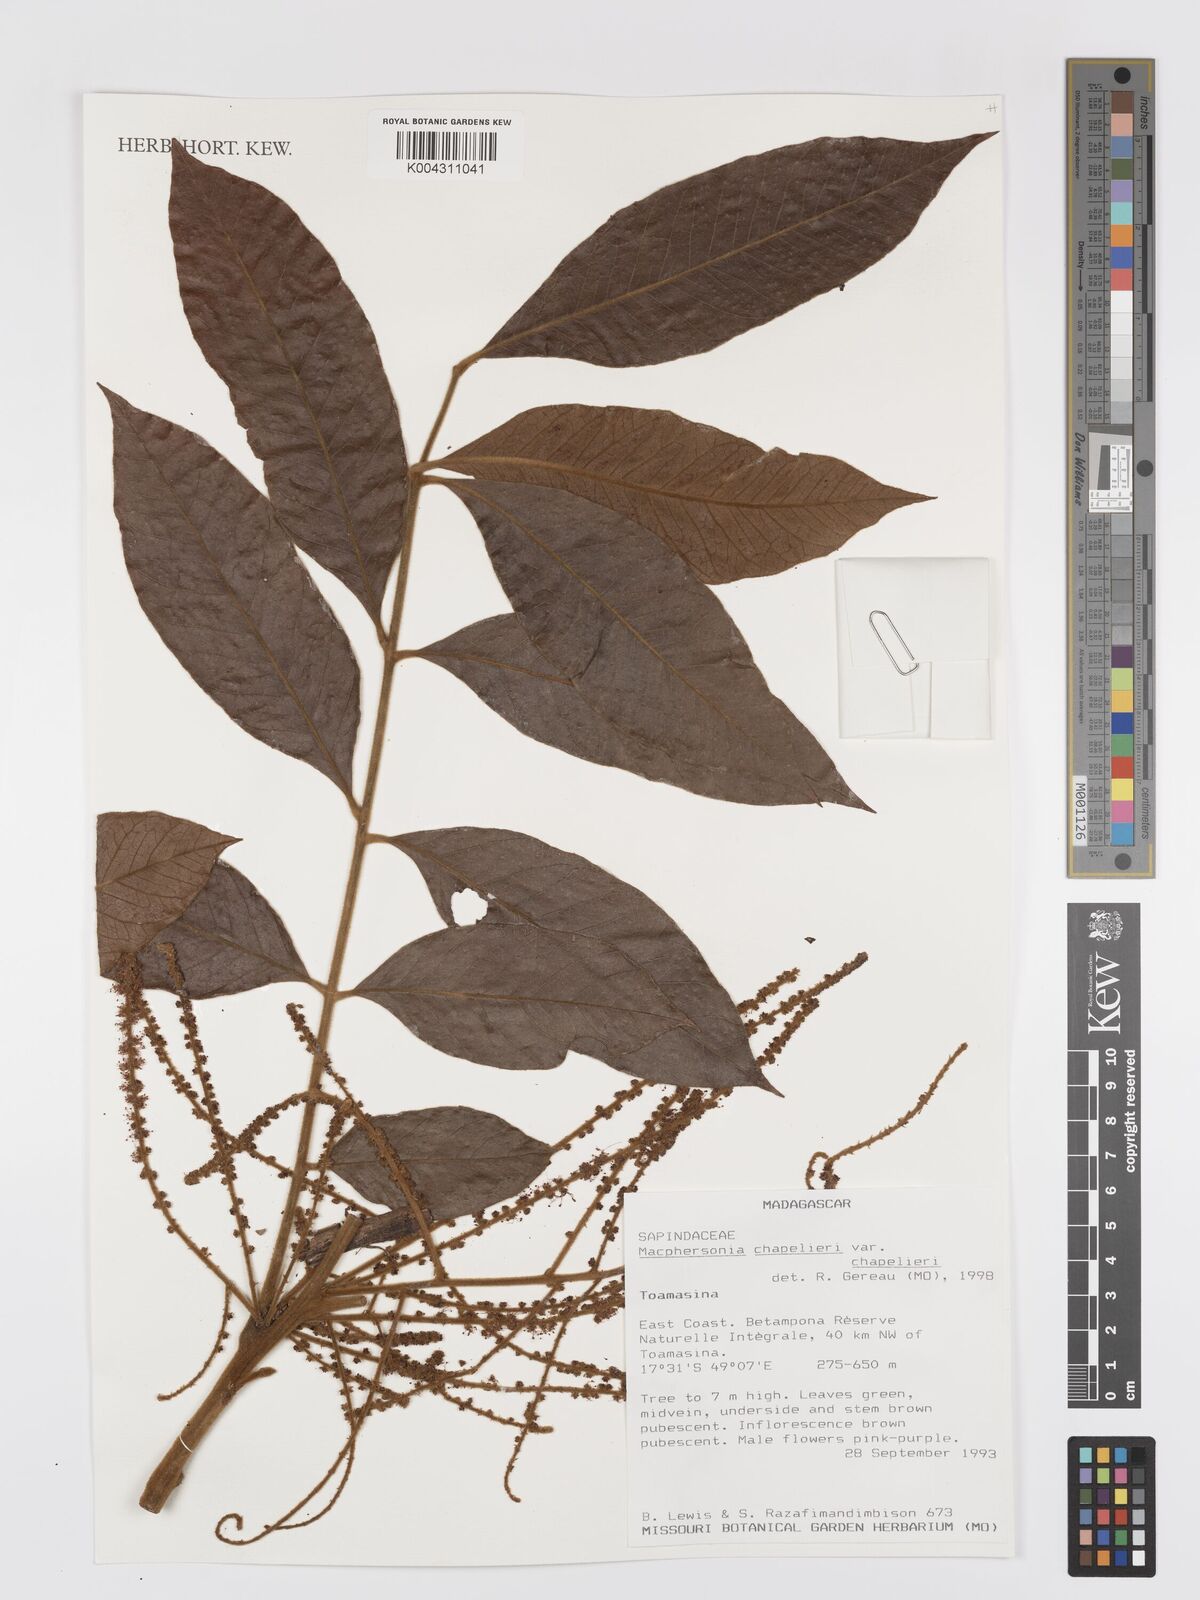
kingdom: Plantae
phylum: Tracheophyta
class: Magnoliopsida
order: Sapindales
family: Sapindaceae
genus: Macphersonia
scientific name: Macphersonia chapelieri
